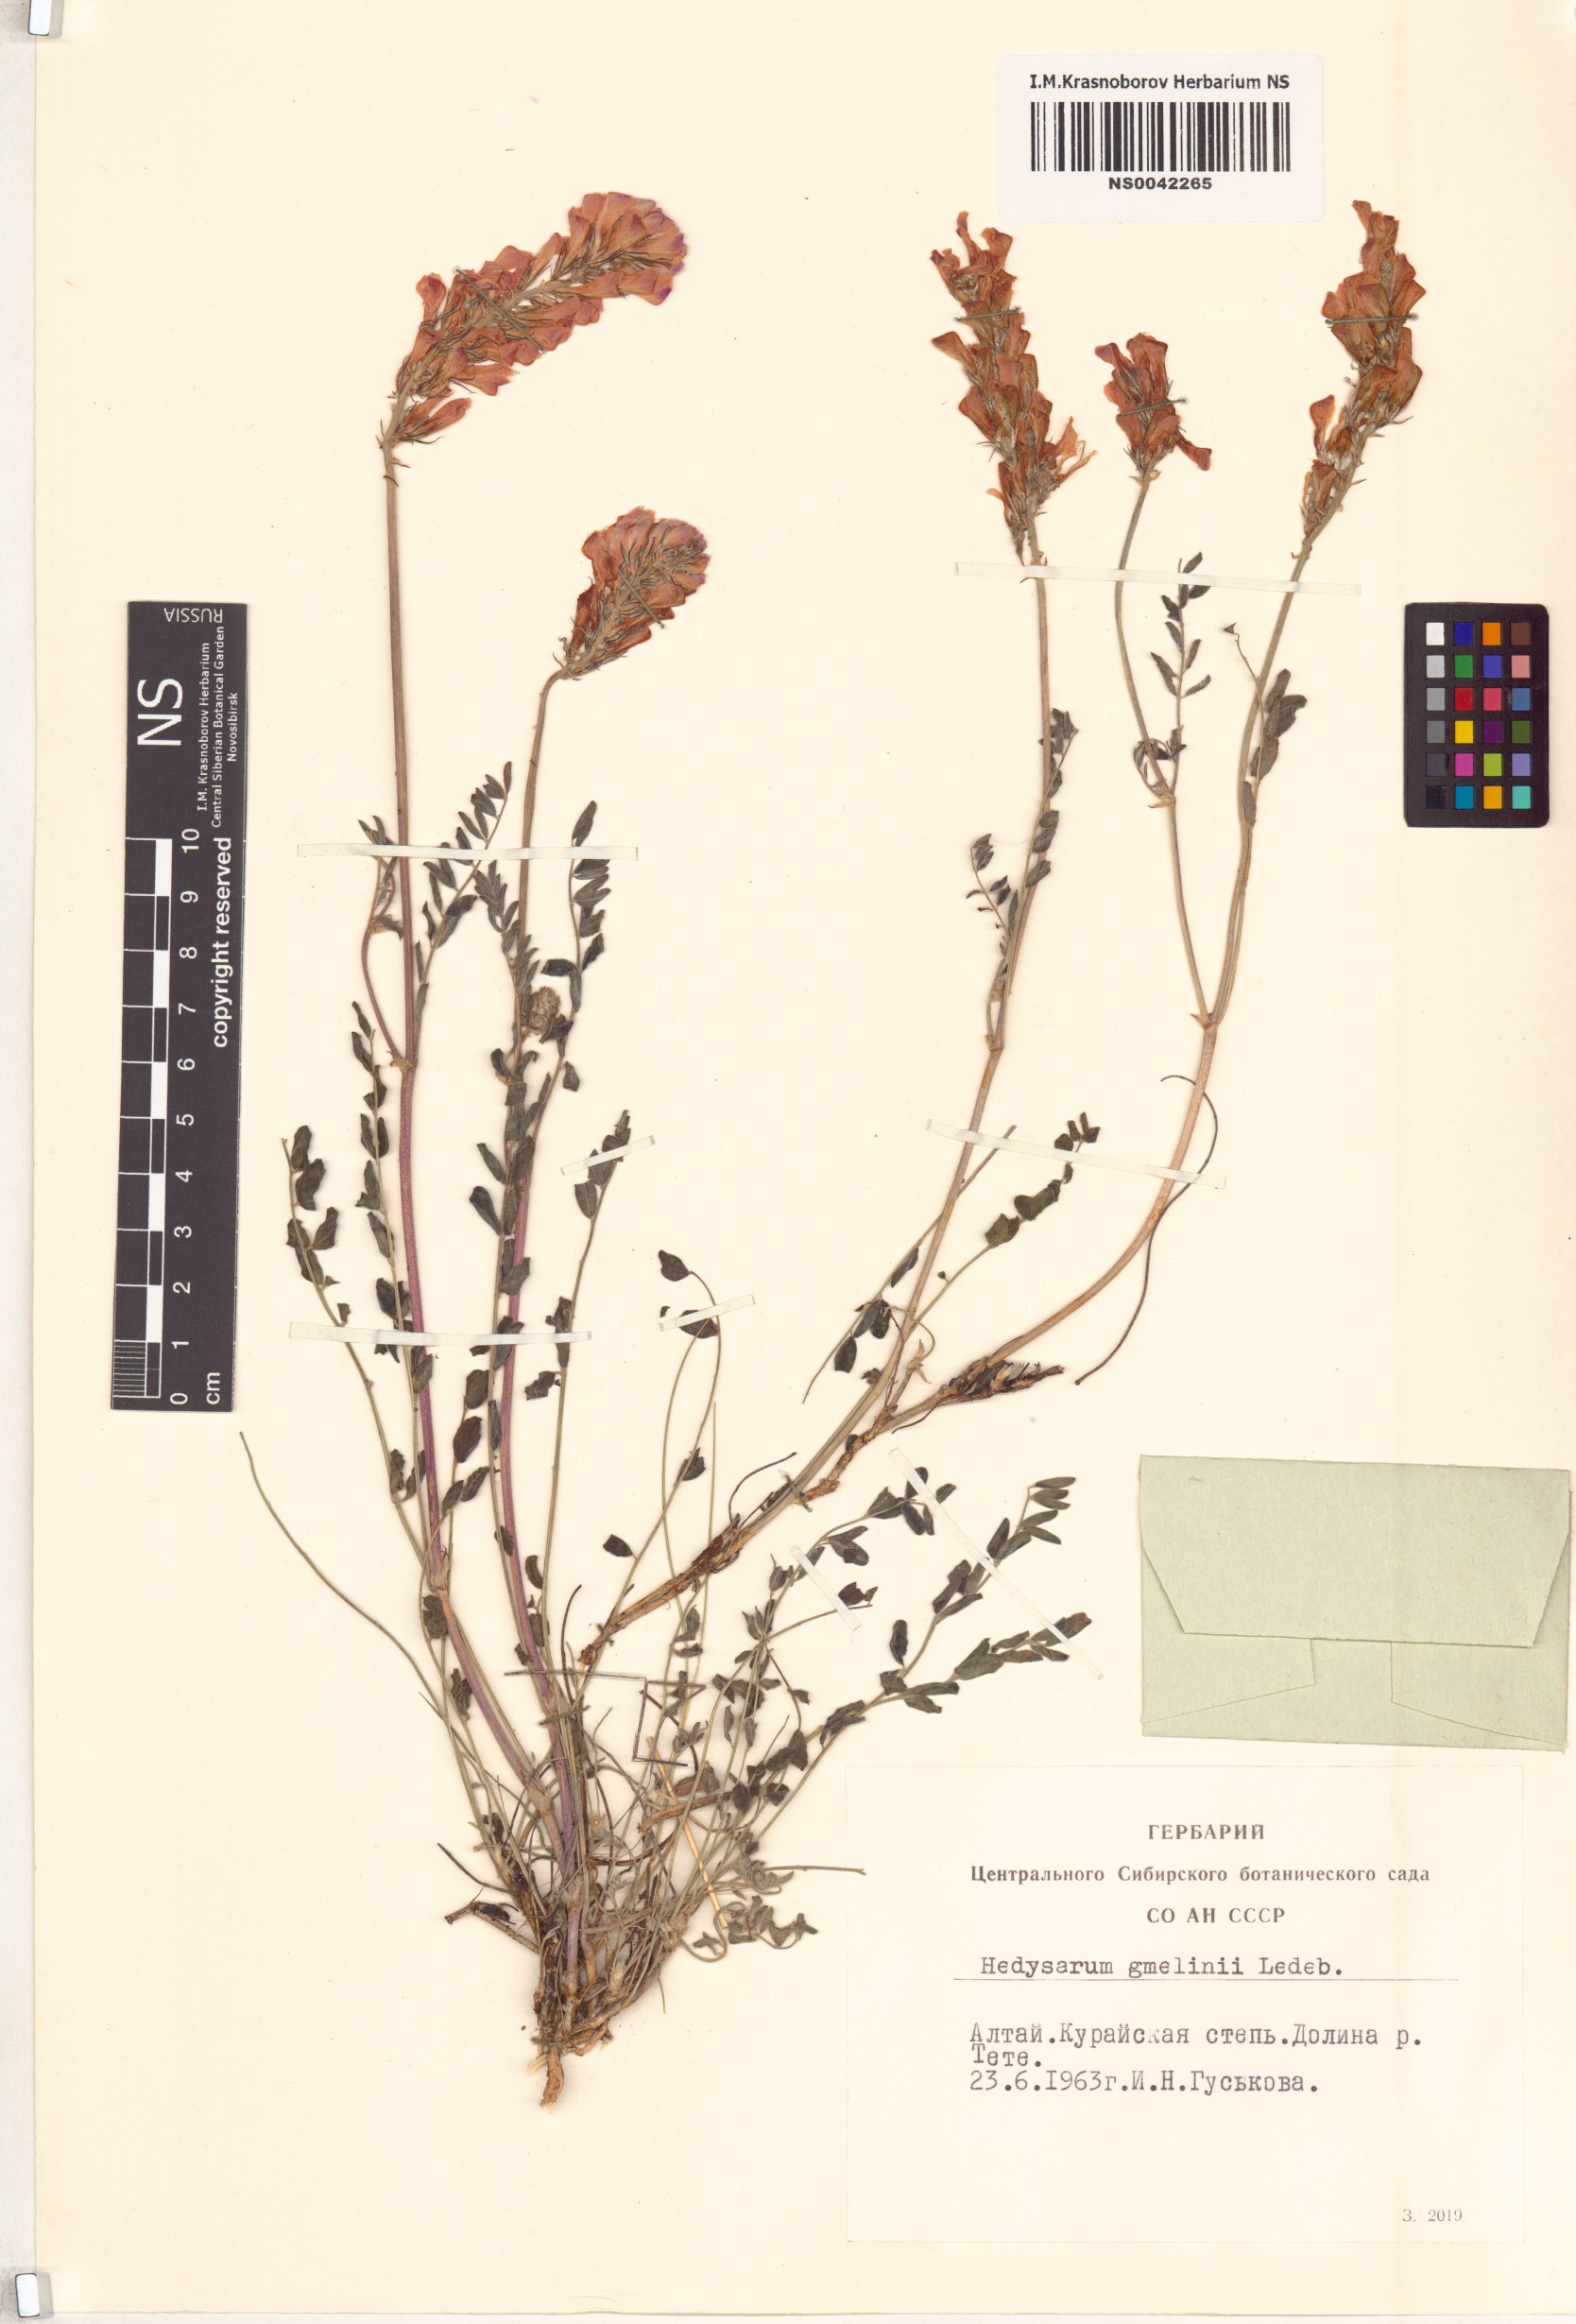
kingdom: Plantae
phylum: Tracheophyta
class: Magnoliopsida
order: Fabales
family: Fabaceae
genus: Hedysarum
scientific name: Hedysarum gmelinii
